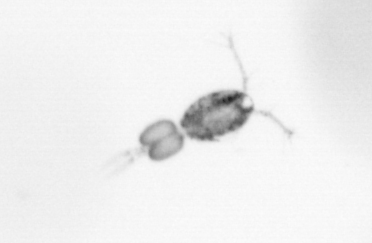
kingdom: Animalia
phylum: Arthropoda
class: Copepoda
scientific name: Copepoda
